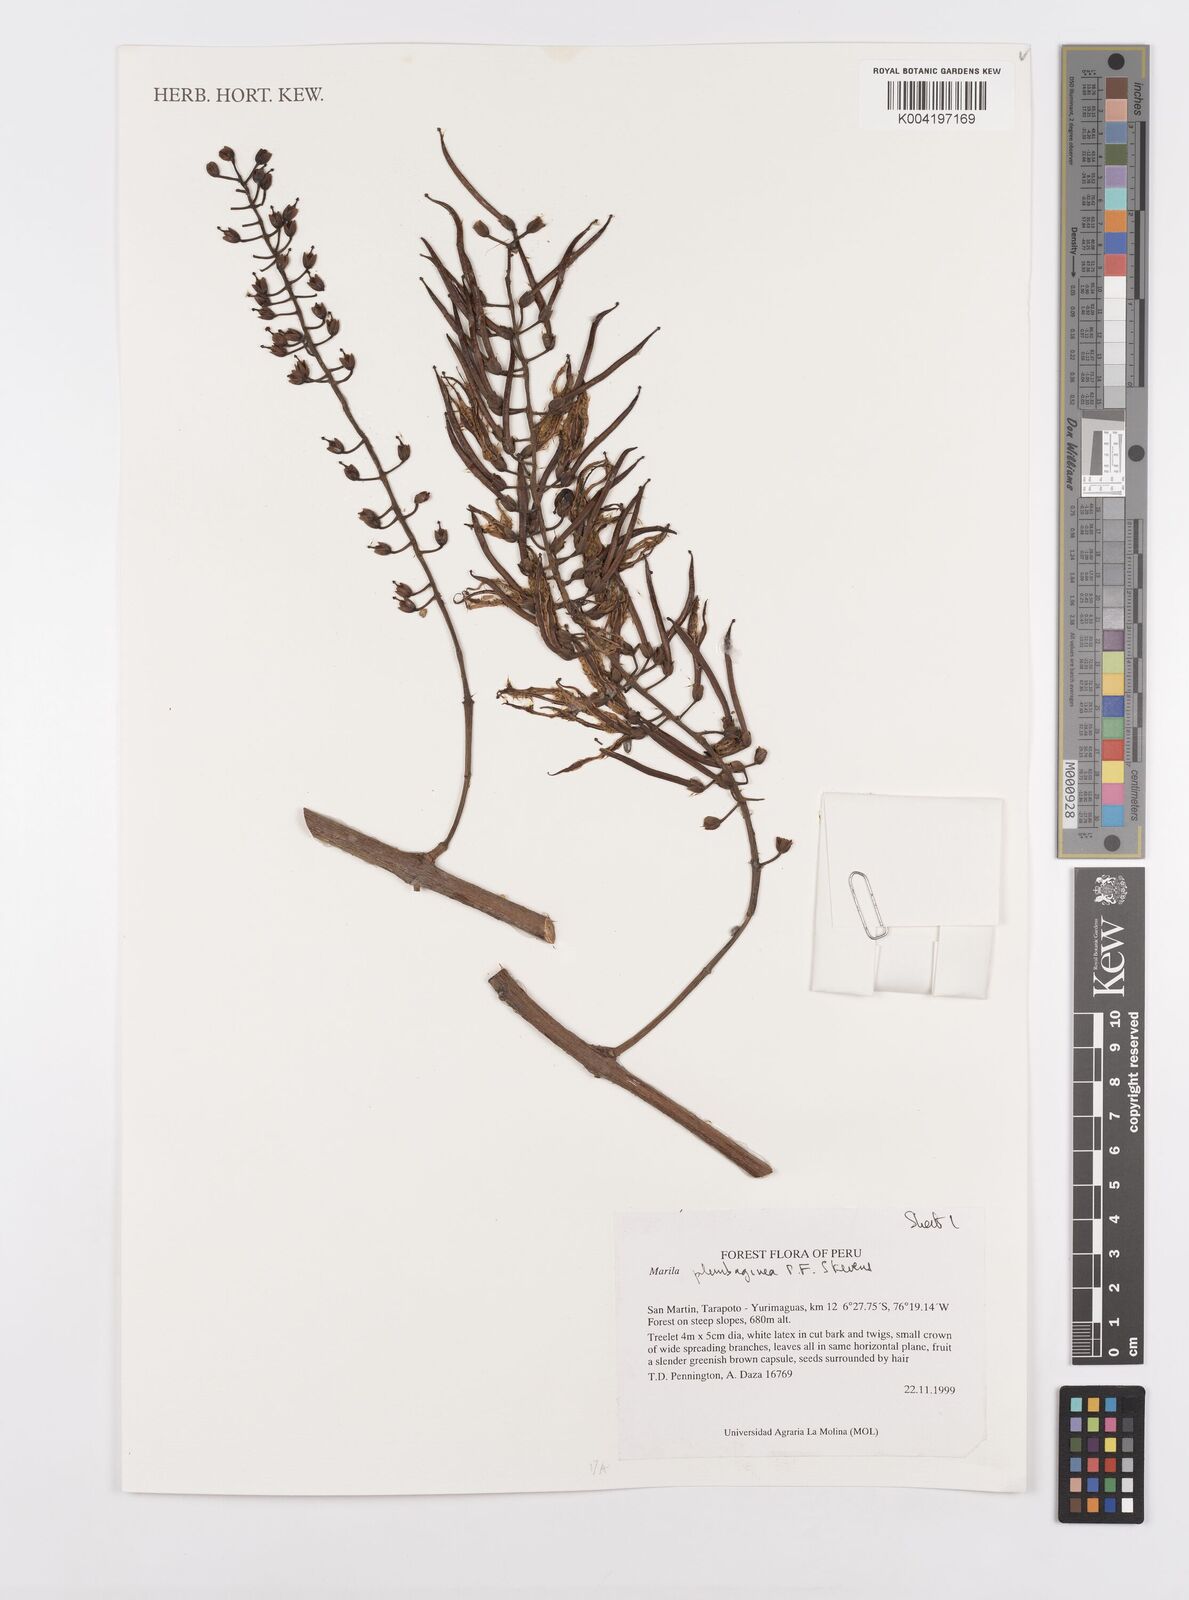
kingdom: Plantae
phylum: Tracheophyta
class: Magnoliopsida
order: Malpighiales
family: Calophyllaceae
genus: Marila
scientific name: Marila
